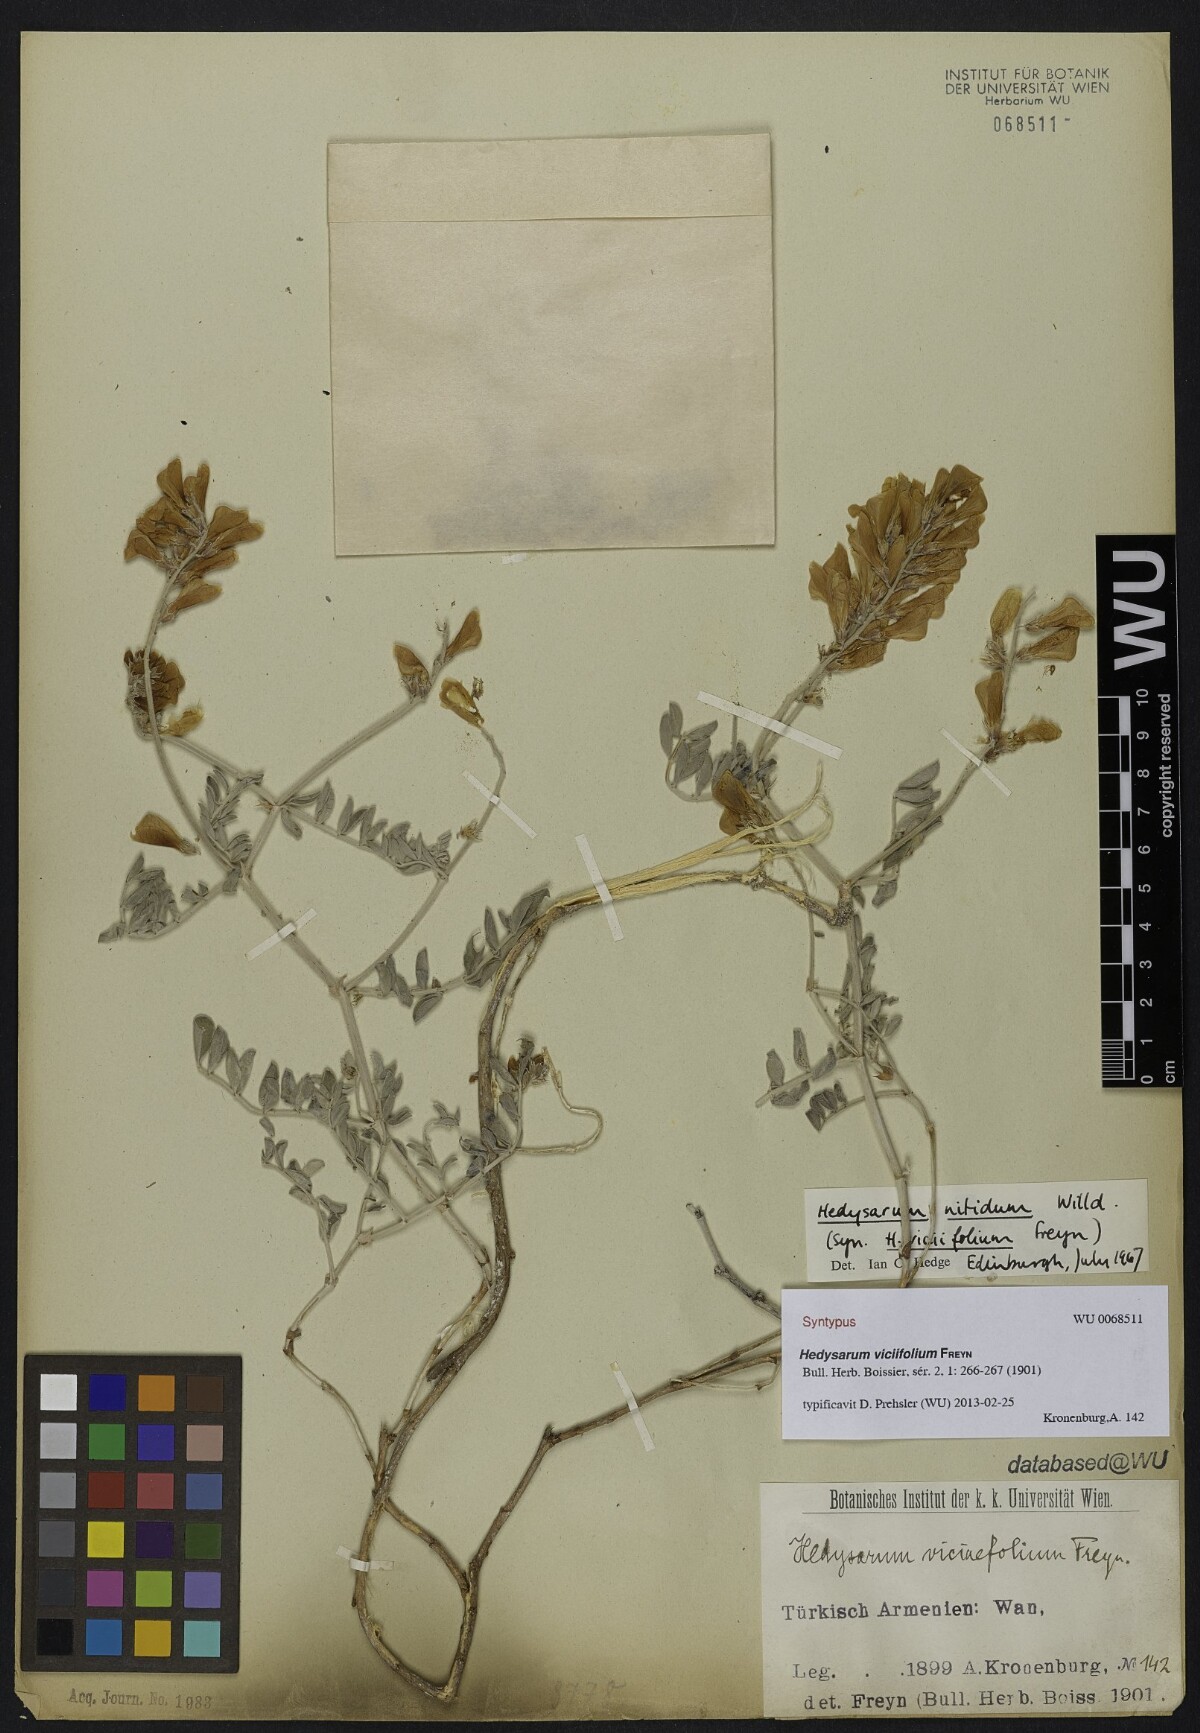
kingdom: Plantae
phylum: Tracheophyta
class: Magnoliopsida
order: Fabales
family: Fabaceae
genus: Hedysarum
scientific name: Hedysarum nitidum
